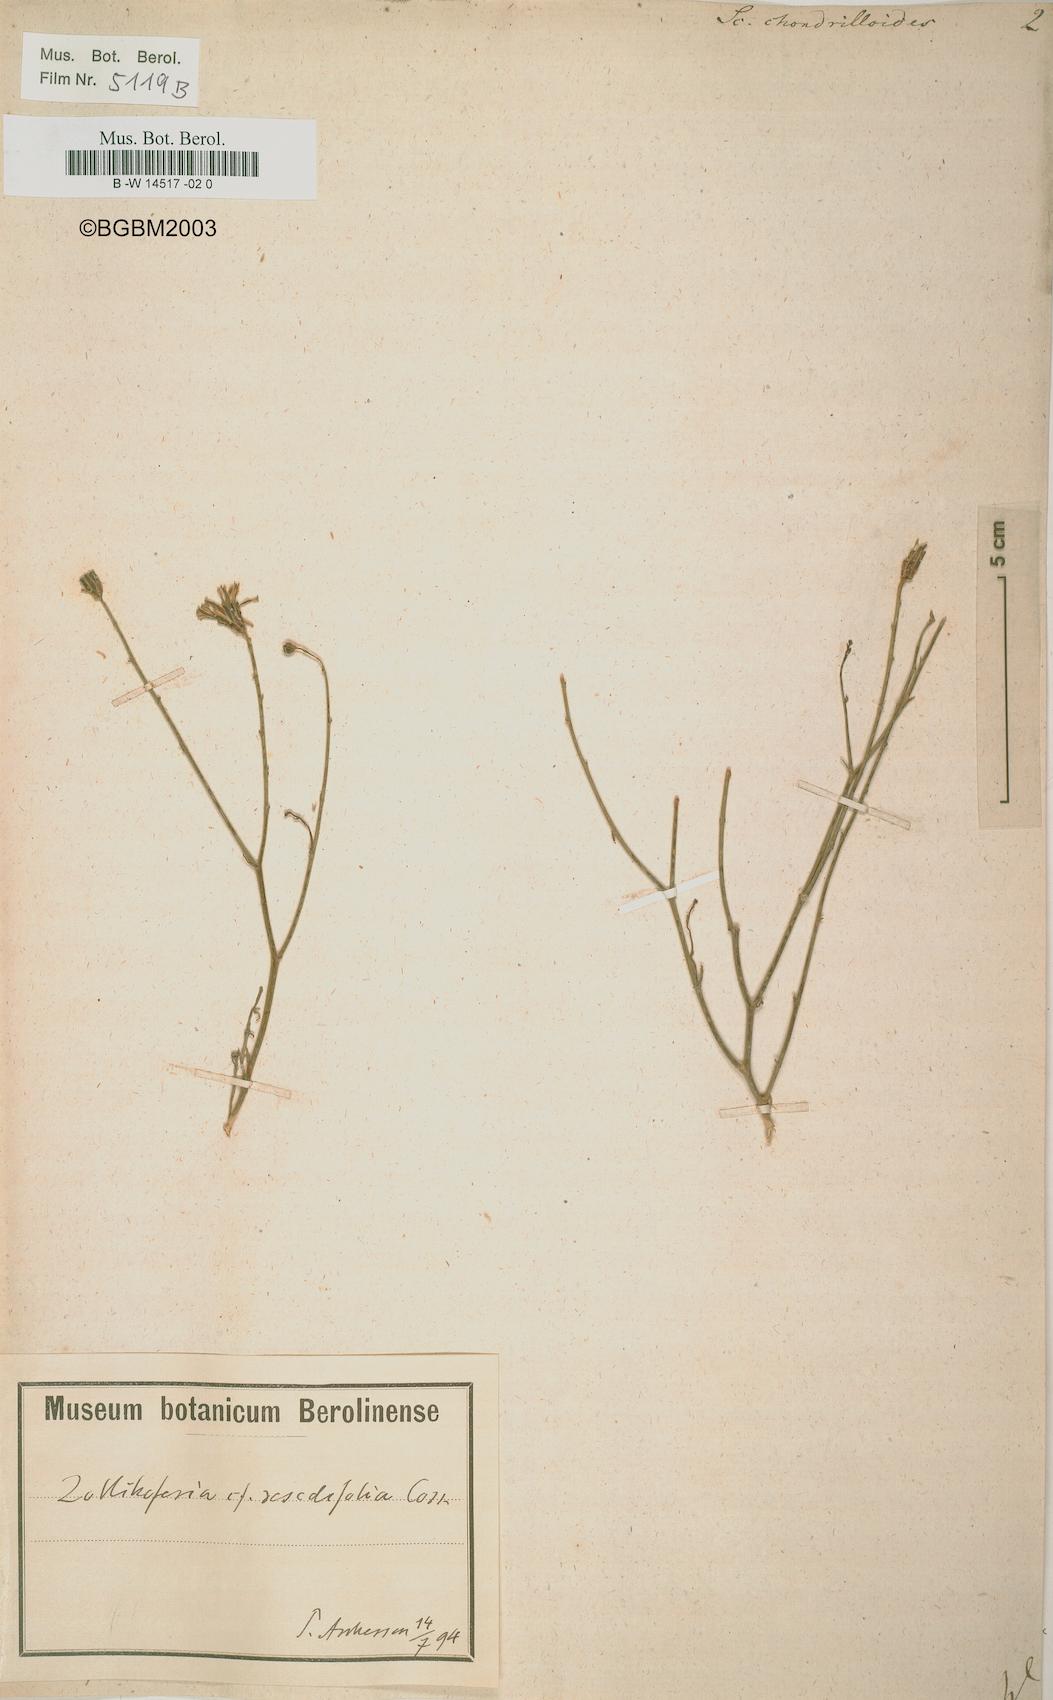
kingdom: Plantae
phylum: Tracheophyta
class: Magnoliopsida
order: Asterales
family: Asteraceae
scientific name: Asteraceae
